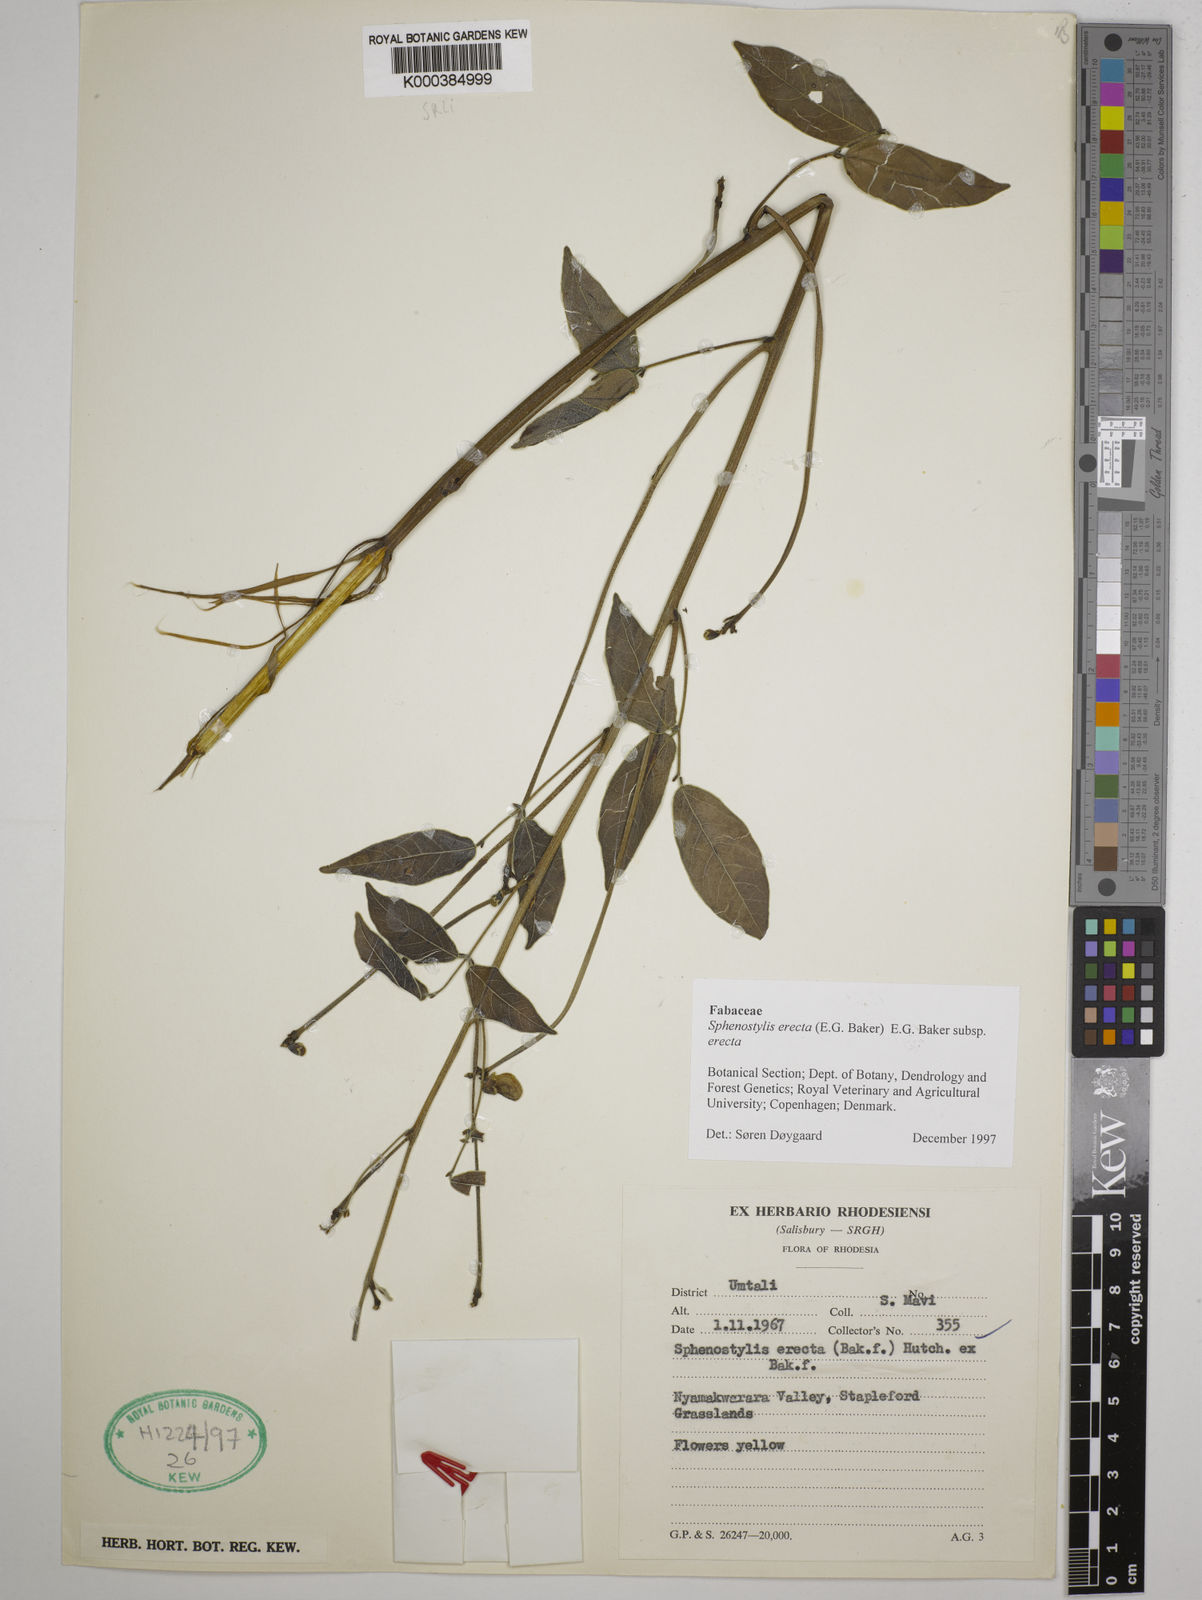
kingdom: Plantae
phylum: Tracheophyta
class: Magnoliopsida
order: Fabales
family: Fabaceae
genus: Sphenostylis
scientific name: Sphenostylis erecta
